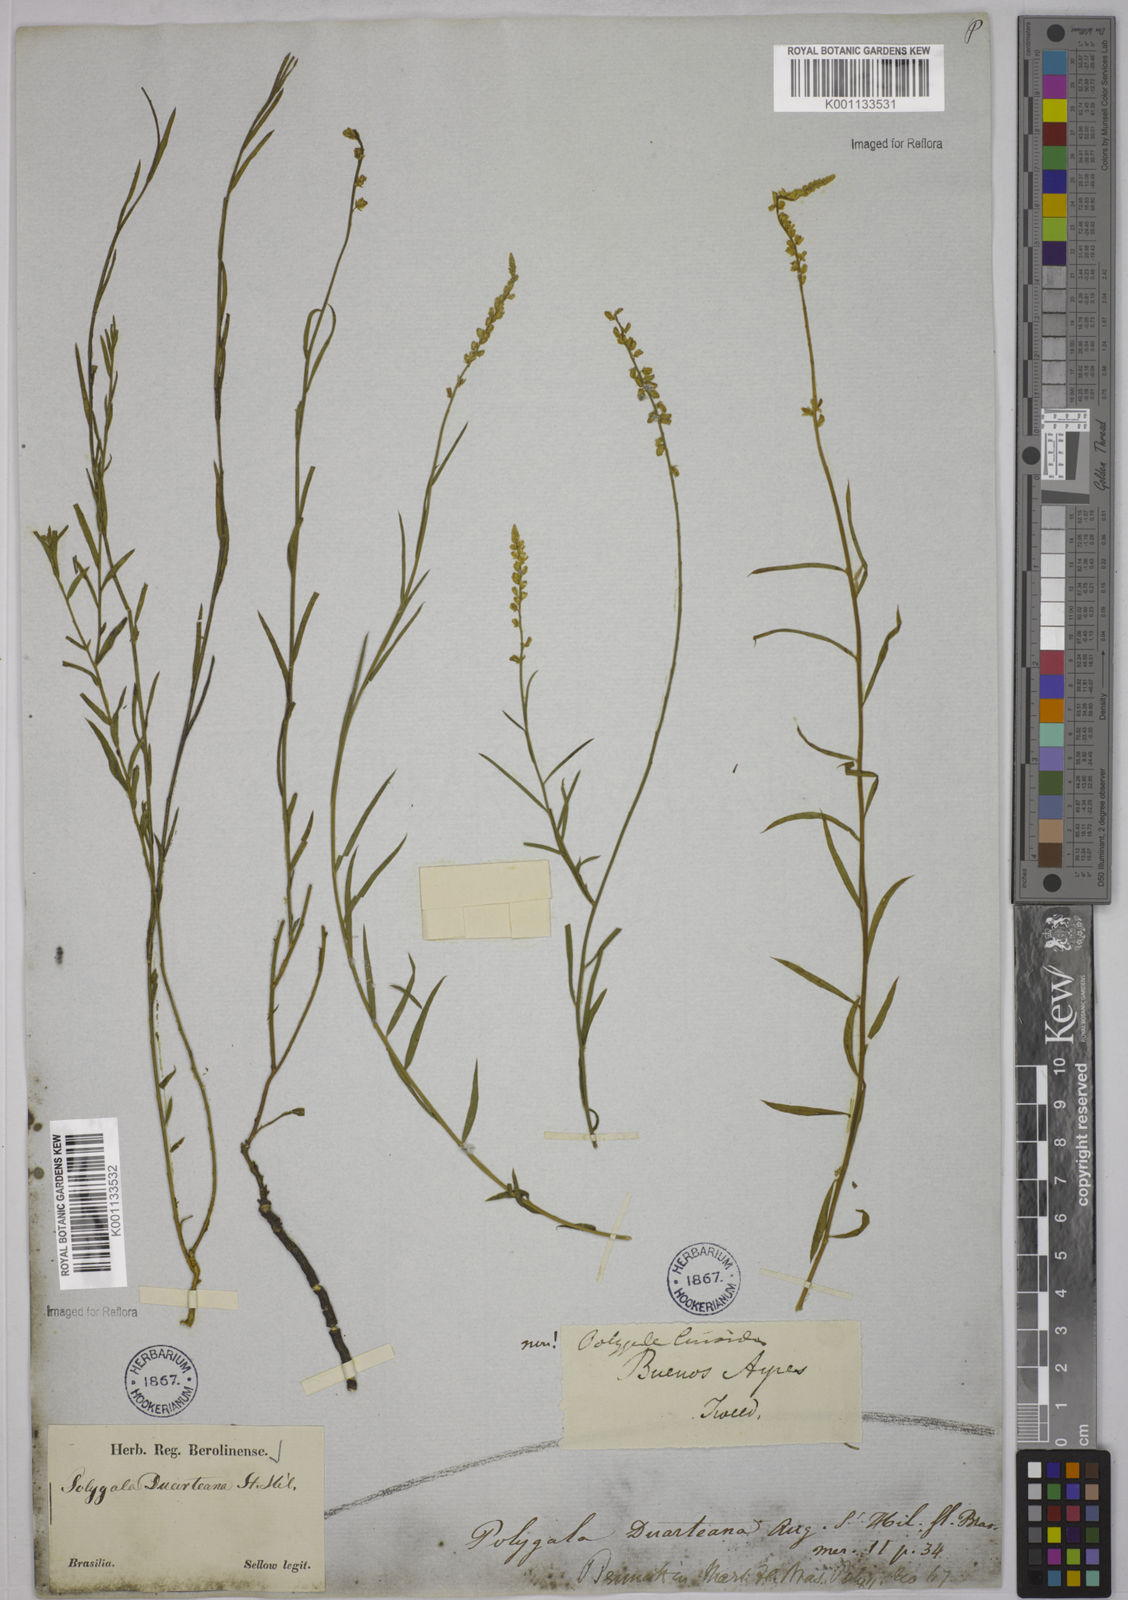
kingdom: Plantae
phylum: Tracheophyta
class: Magnoliopsida
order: Fabales
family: Polygalaceae
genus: Polygala
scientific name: Polygala duarteana
